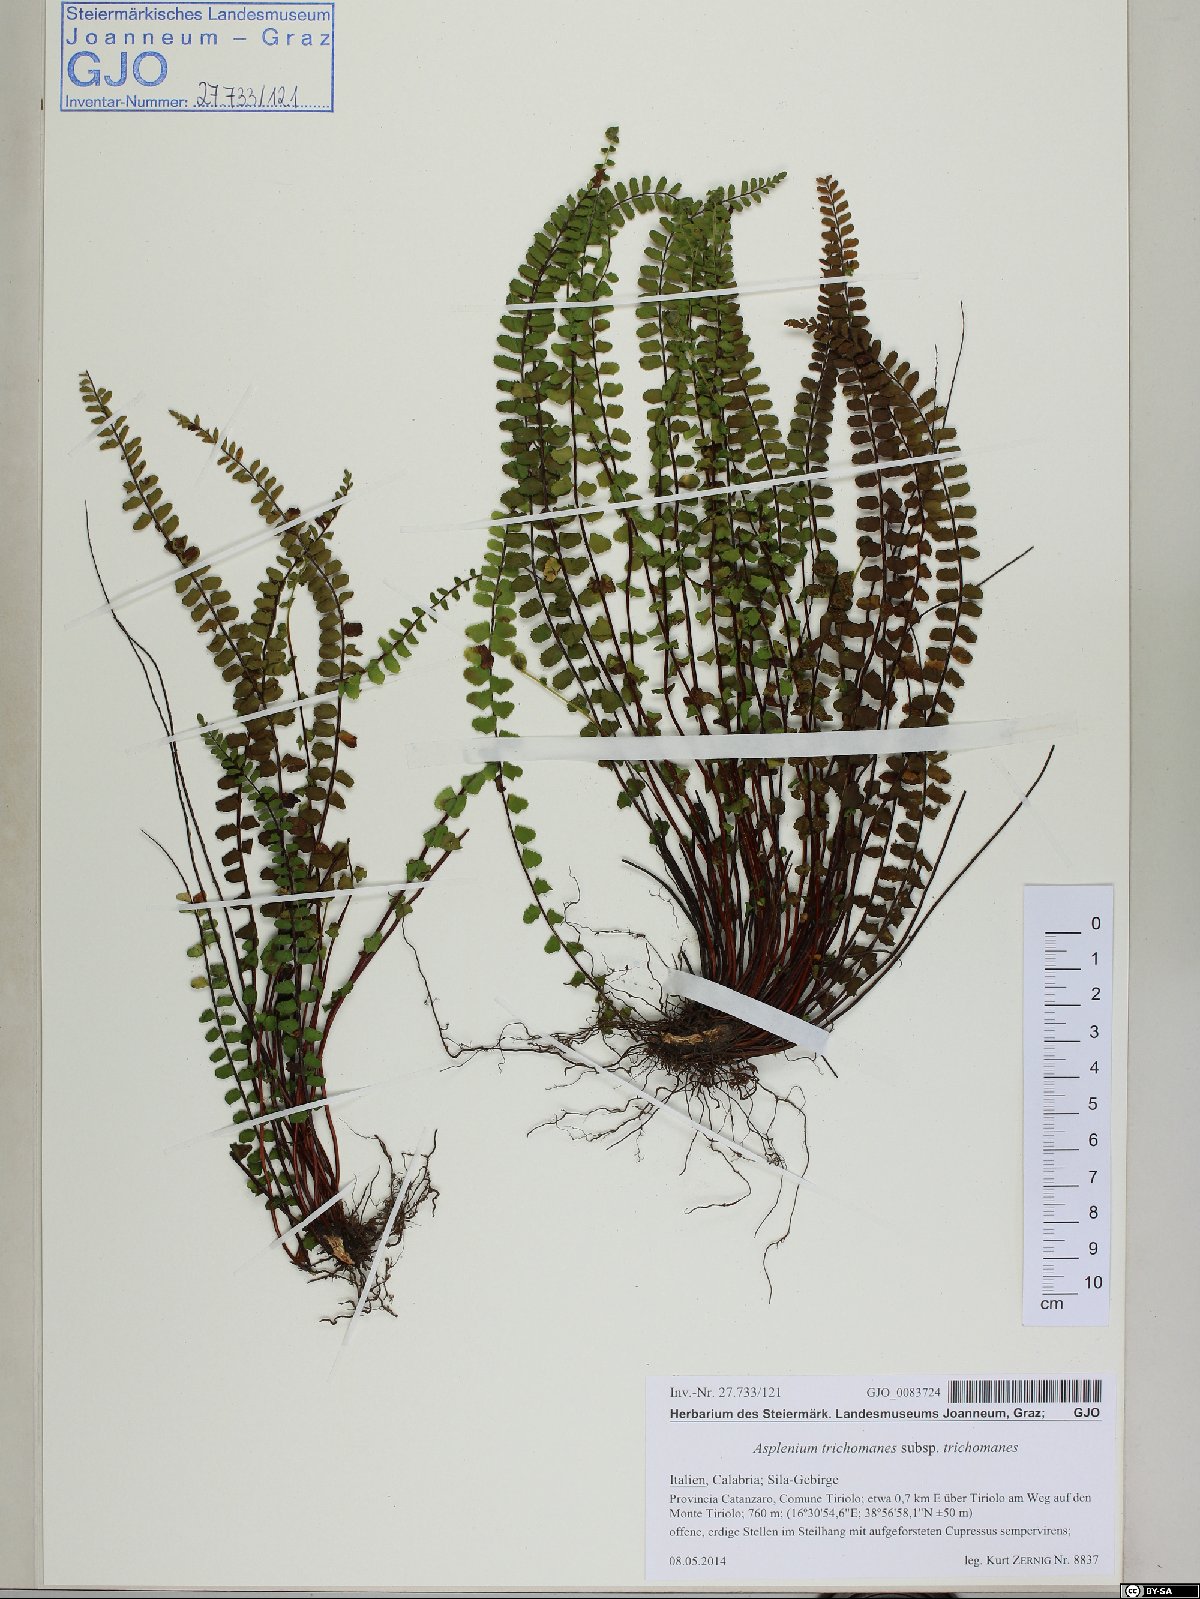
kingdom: Plantae
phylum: Tracheophyta
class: Polypodiopsida
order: Polypodiales
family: Aspleniaceae
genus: Asplenium
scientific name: Asplenium trichomanes
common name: Maidenhair spleenwort
